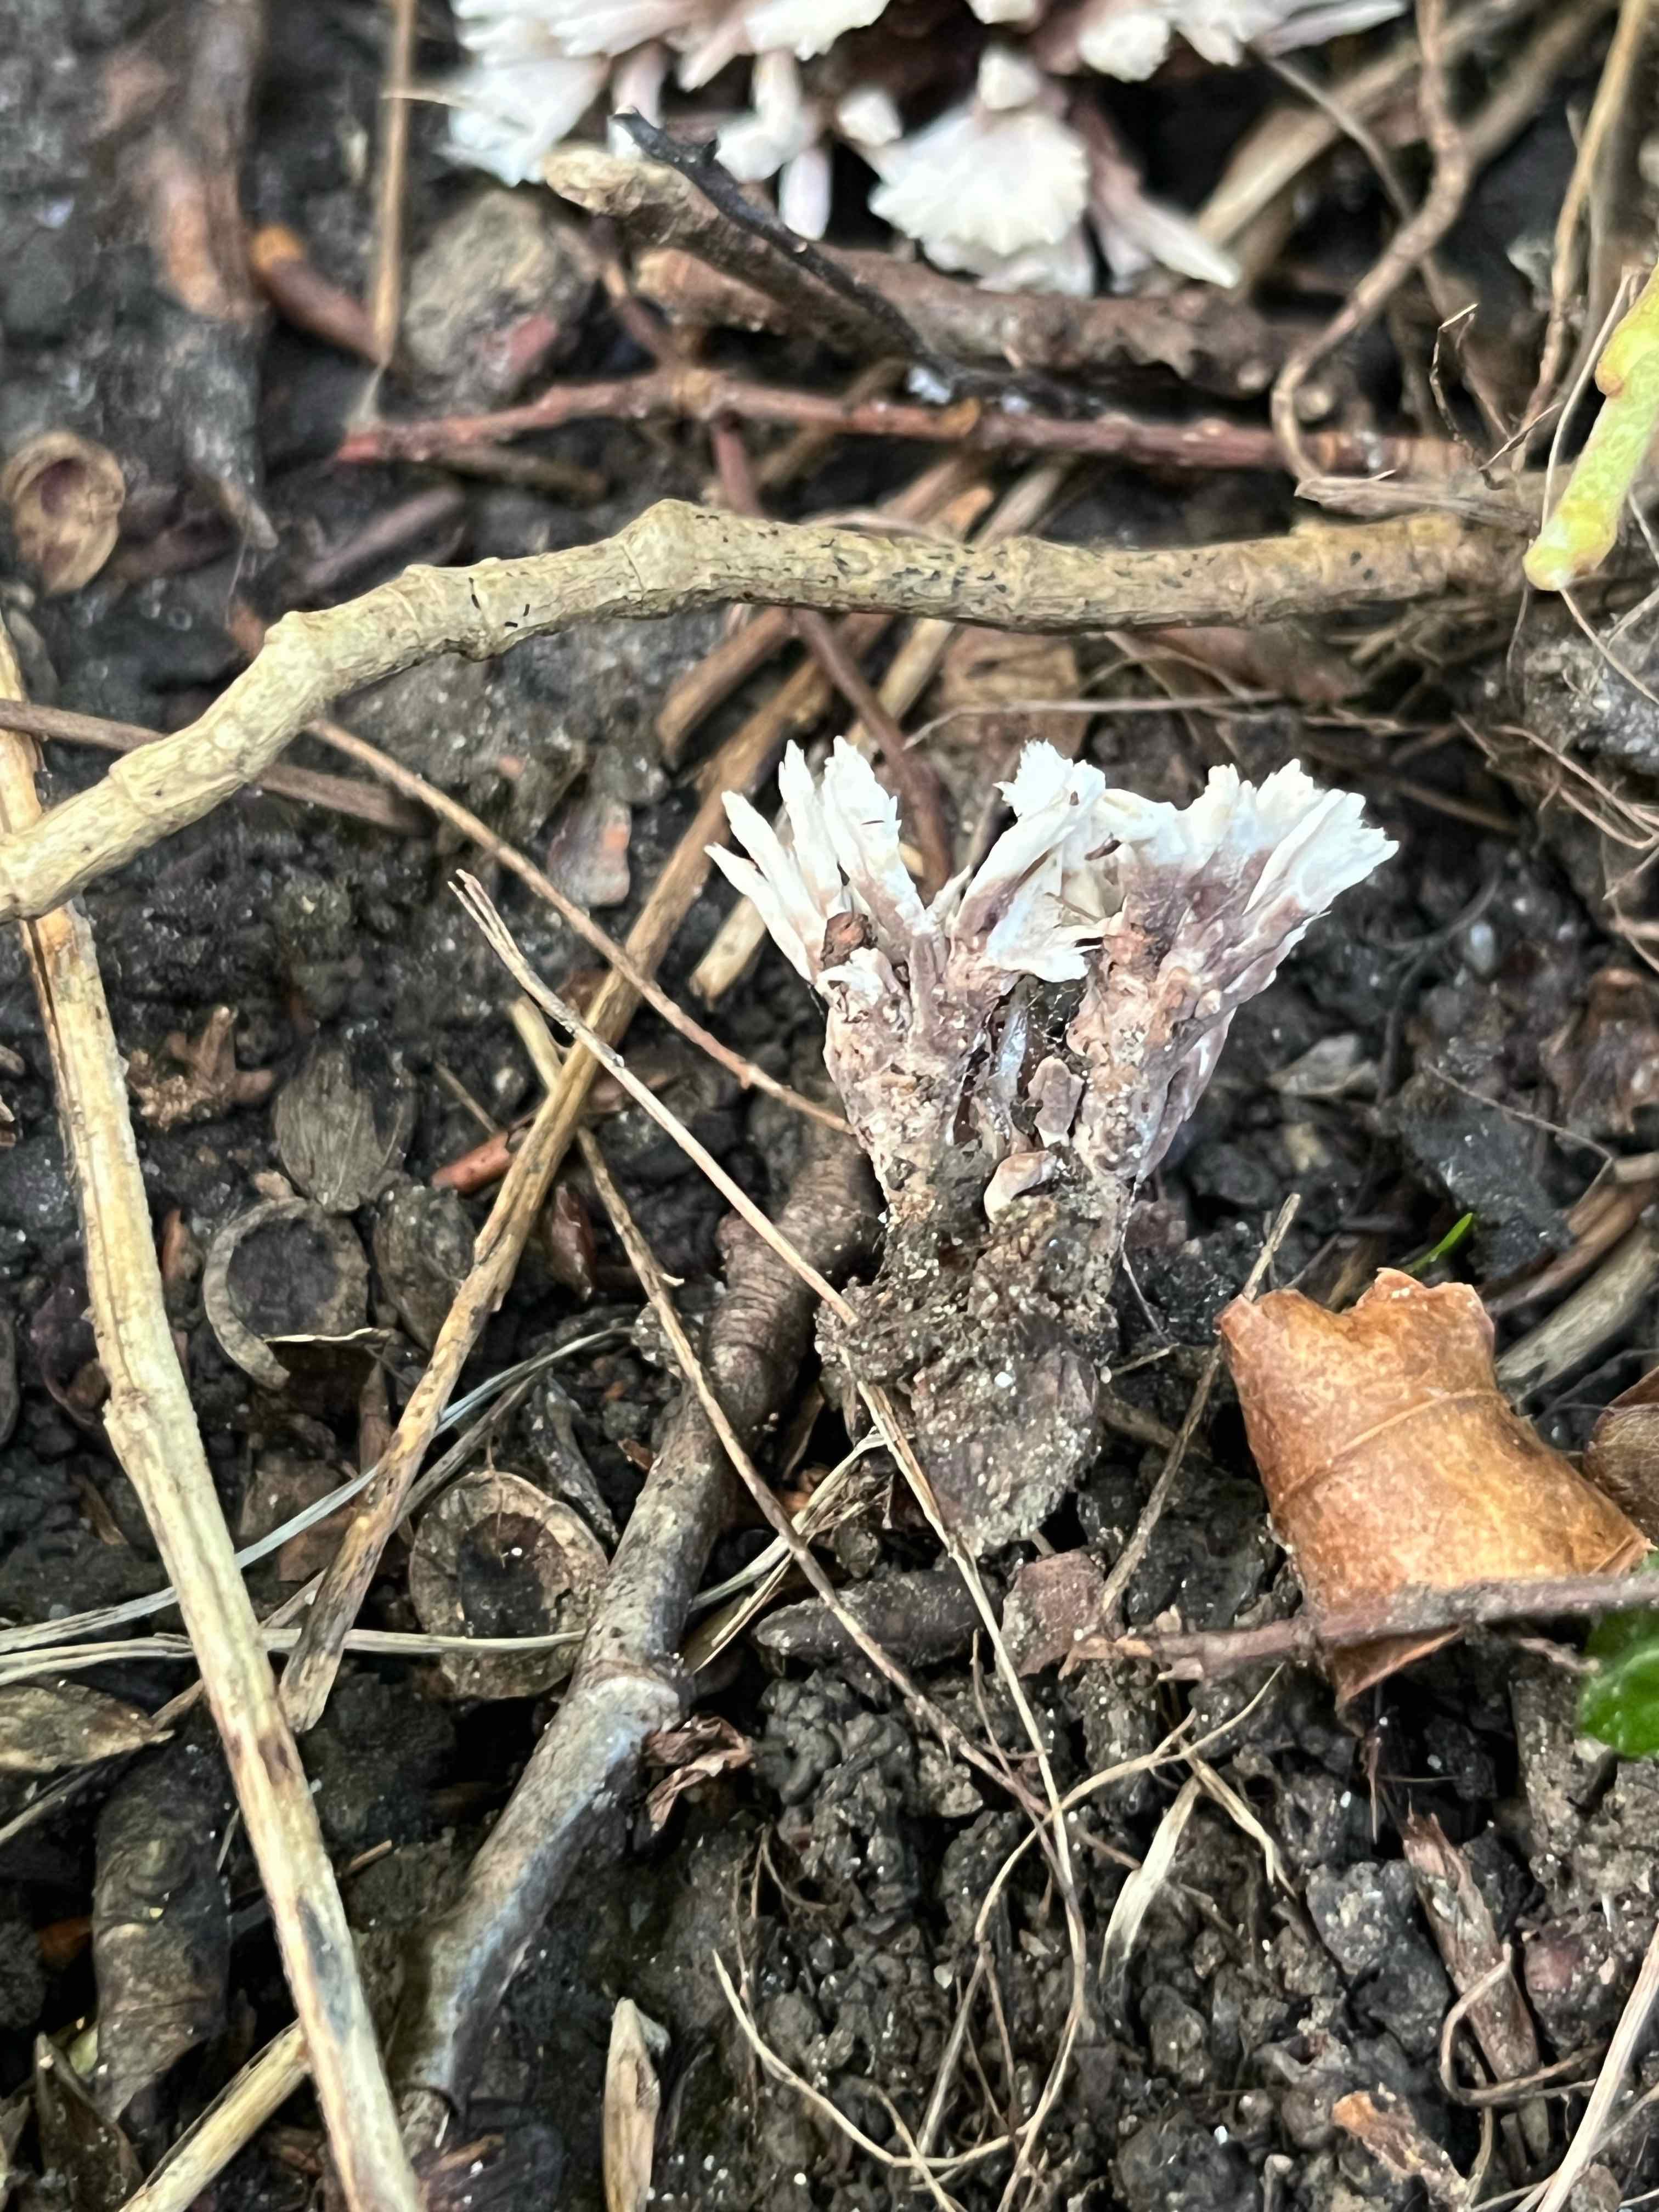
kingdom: Fungi
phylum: Basidiomycota
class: Agaricomycetes
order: Thelephorales
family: Thelephoraceae
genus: Thelephora
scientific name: Thelephora anthocephala
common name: busk-frynsesvamp
